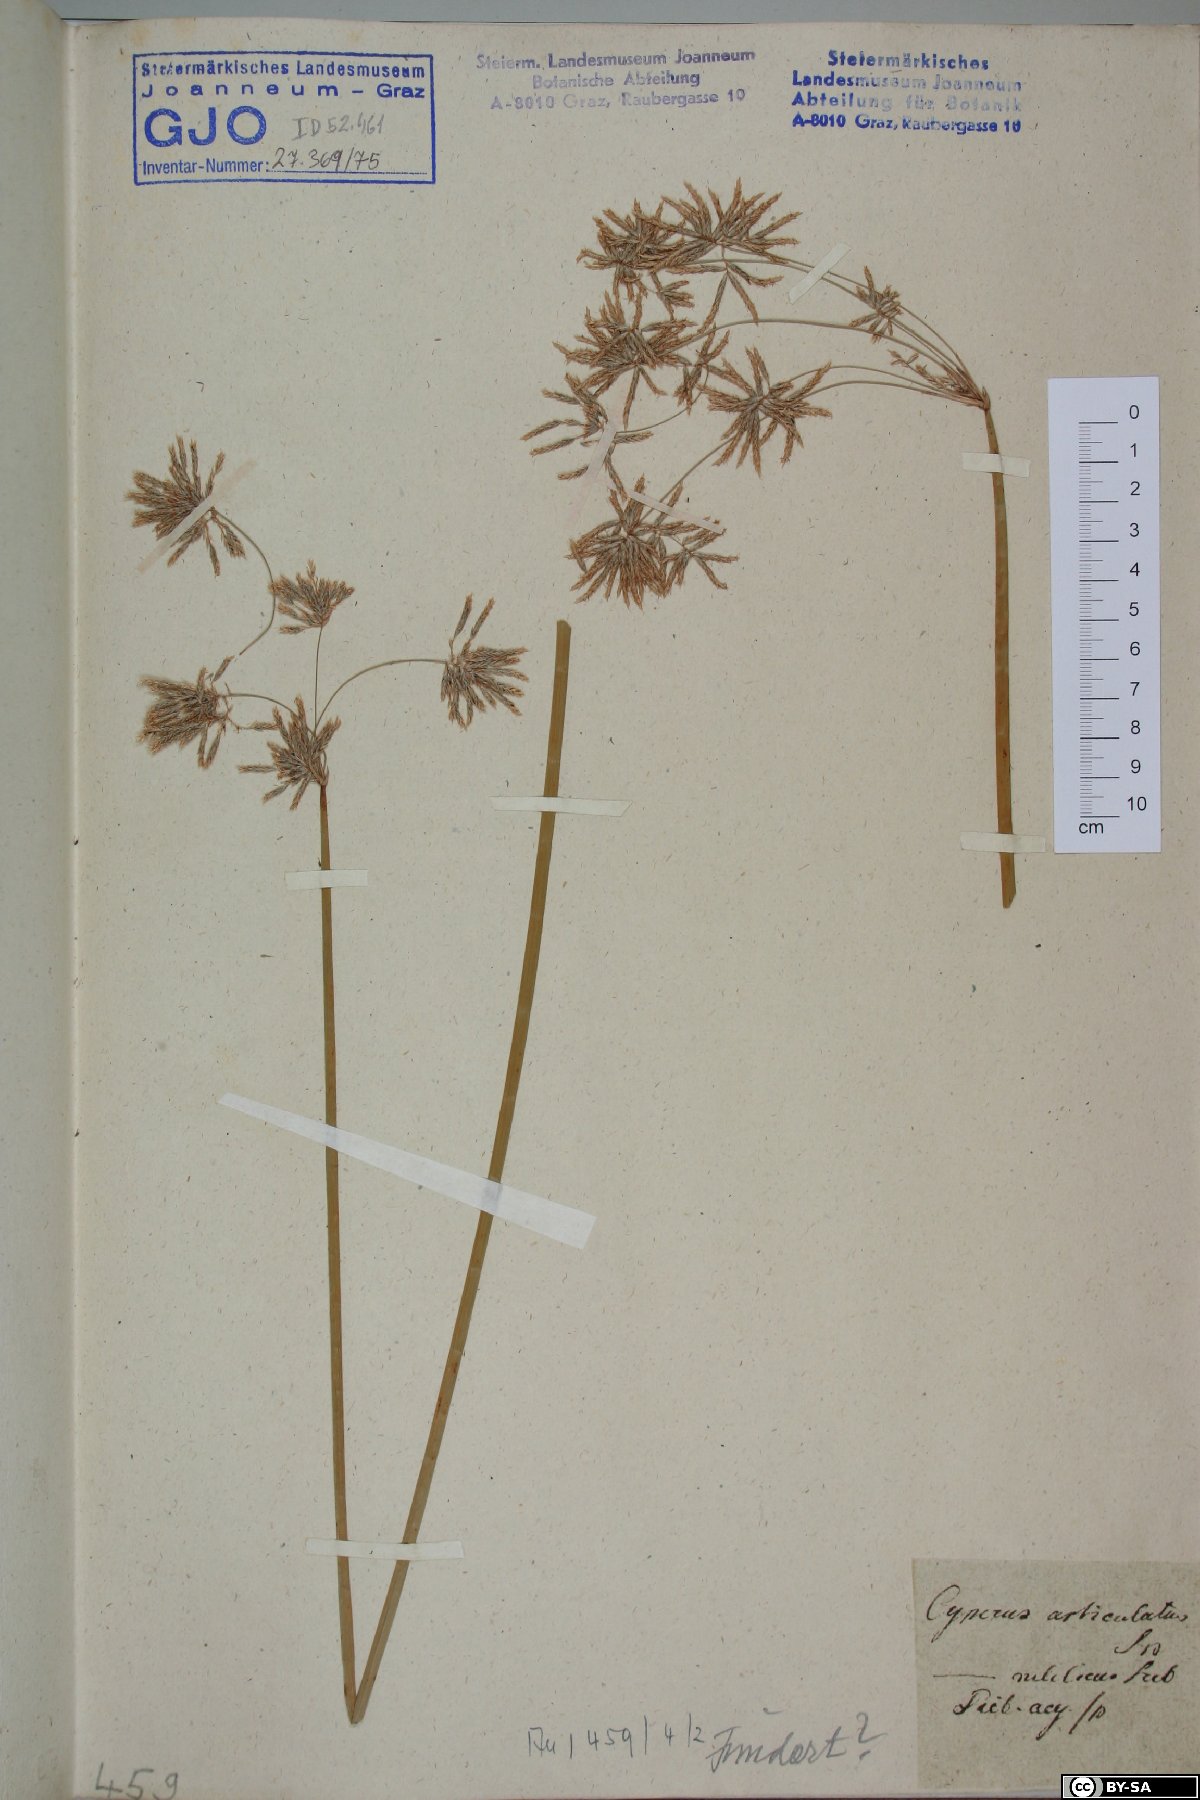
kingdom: Plantae
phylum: Tracheophyta
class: Liliopsida
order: Poales
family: Cyperaceae
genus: Cyperus
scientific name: Cyperus articulatus
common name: Jointed flatsedge
